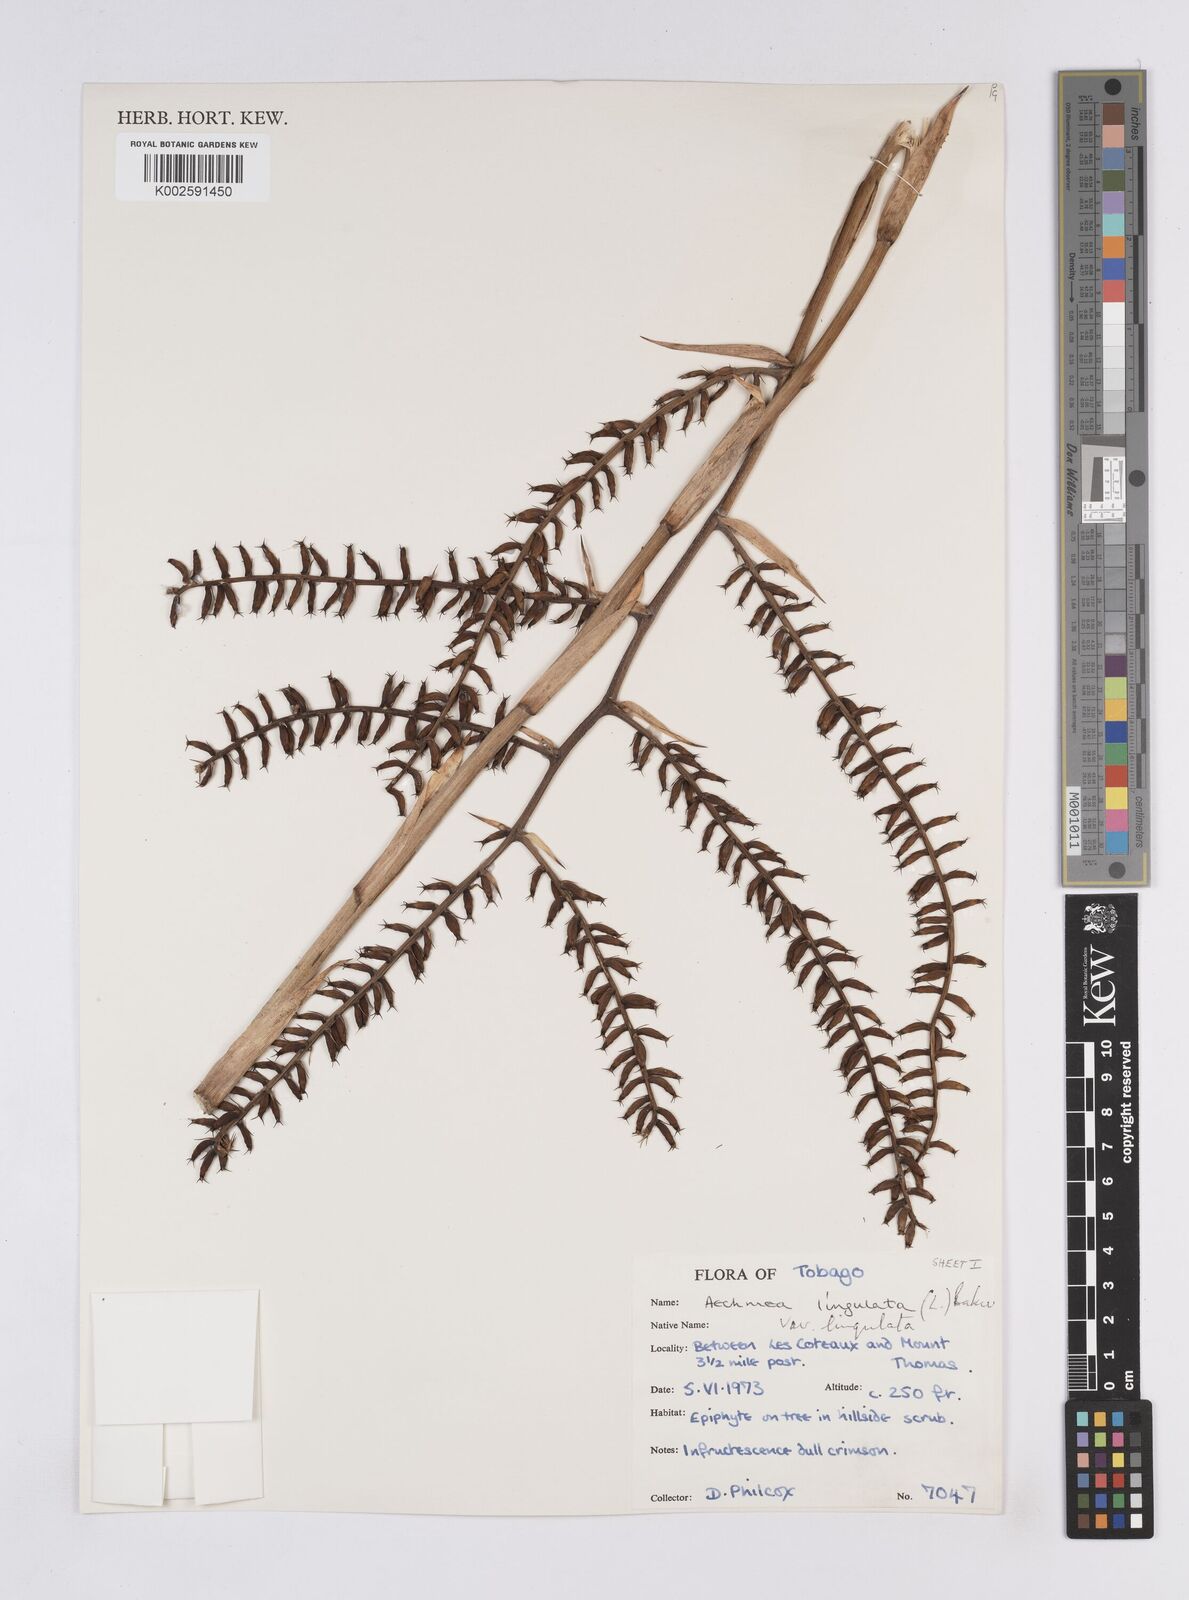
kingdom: Plantae
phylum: Tracheophyta
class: Liliopsida
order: Poales
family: Bromeliaceae
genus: Wittmackia
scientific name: Wittmackia lingulata
